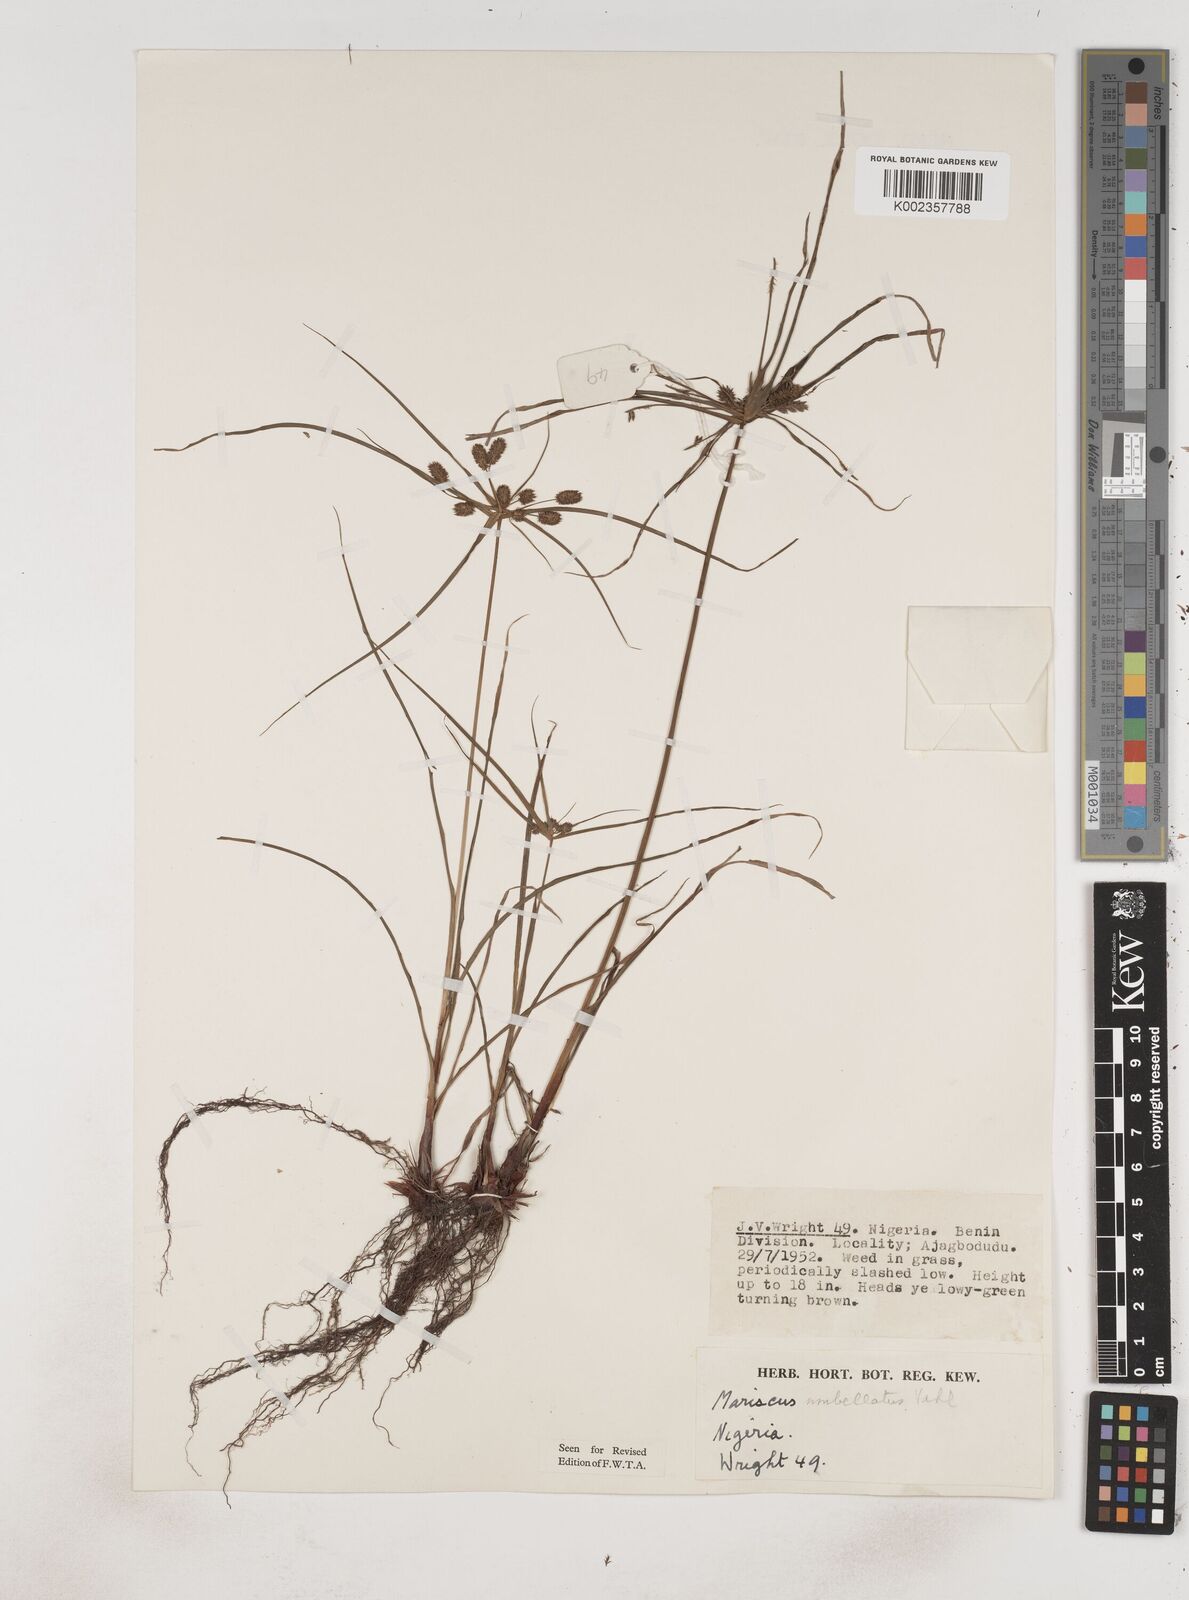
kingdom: Plantae
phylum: Tracheophyta
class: Liliopsida
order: Poales
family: Cyperaceae
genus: Cyperus
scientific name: Cyperus sublimis
